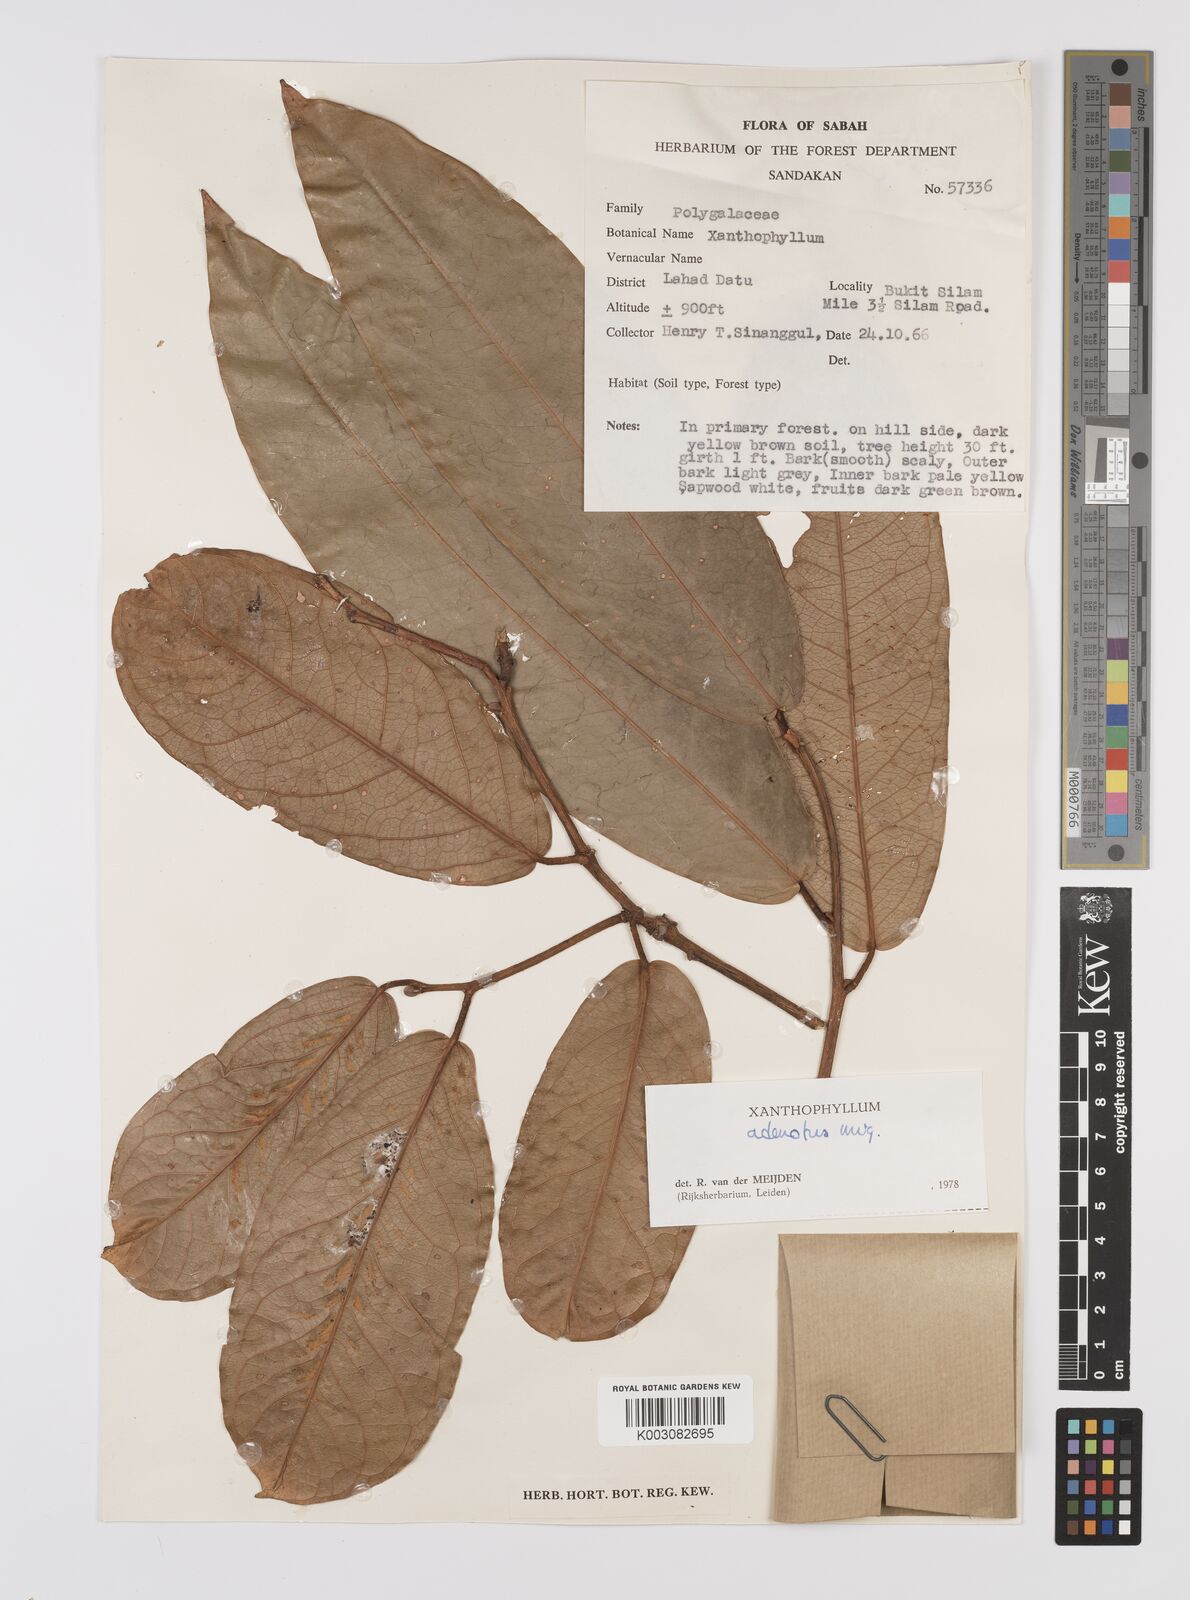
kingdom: Plantae
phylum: Tracheophyta
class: Magnoliopsida
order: Fabales
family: Polygalaceae
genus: Xanthophyllum
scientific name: Xanthophyllum adenotus
